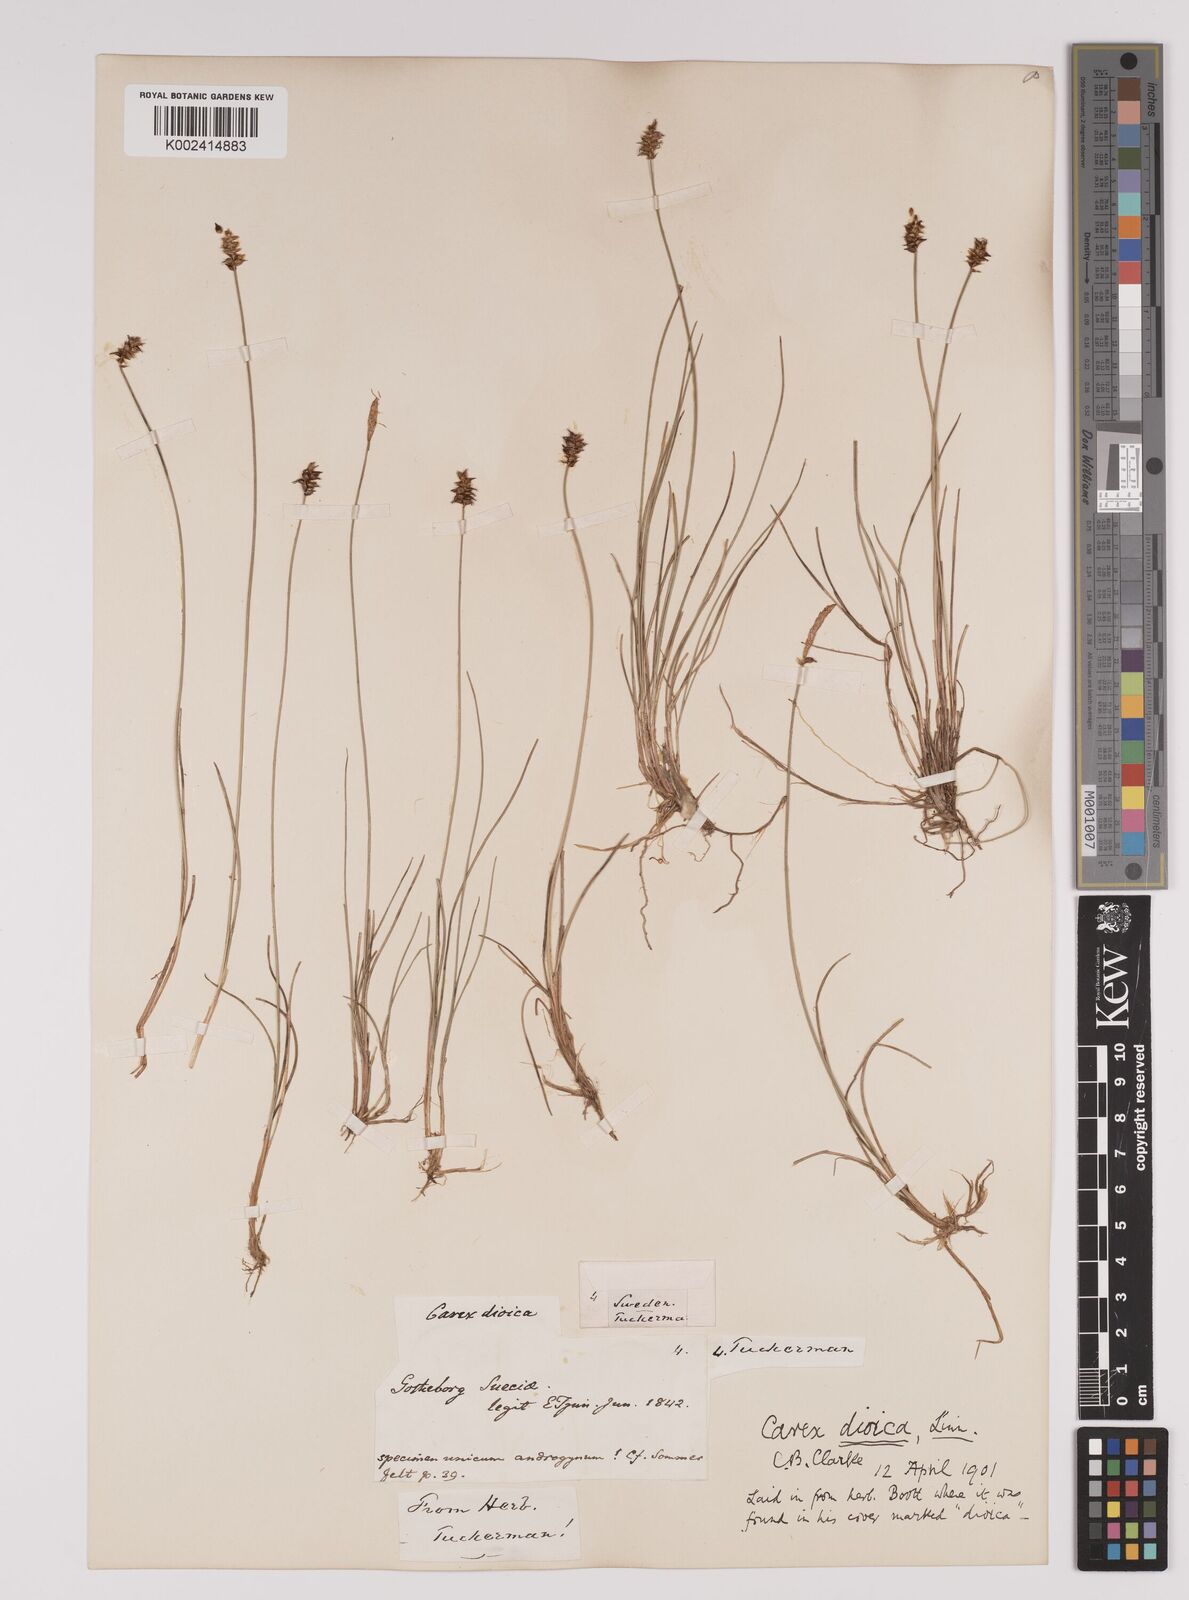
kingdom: Plantae
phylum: Tracheophyta
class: Liliopsida
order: Poales
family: Cyperaceae
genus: Carex
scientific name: Carex dioica
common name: Dioecious sedge
